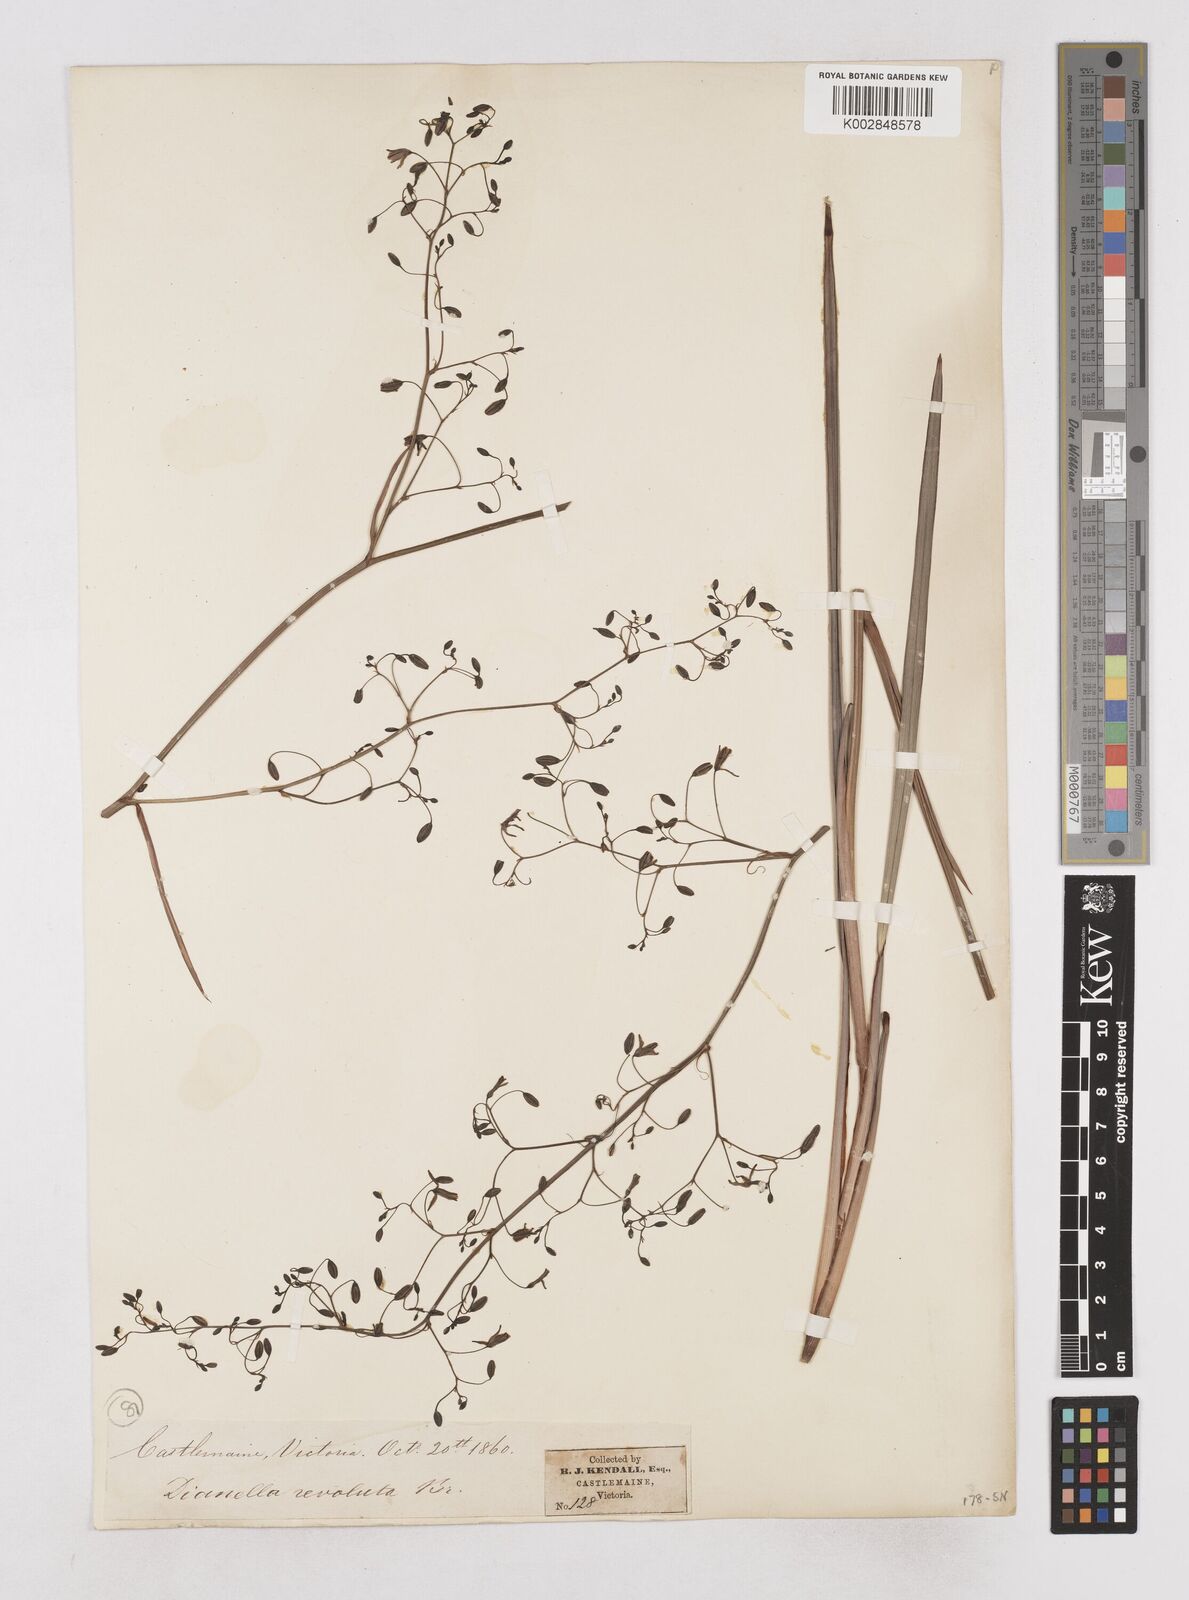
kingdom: Plantae
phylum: Tracheophyta
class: Liliopsida
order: Asparagales
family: Asphodelaceae
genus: Dianella
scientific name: Dianella revoluta
